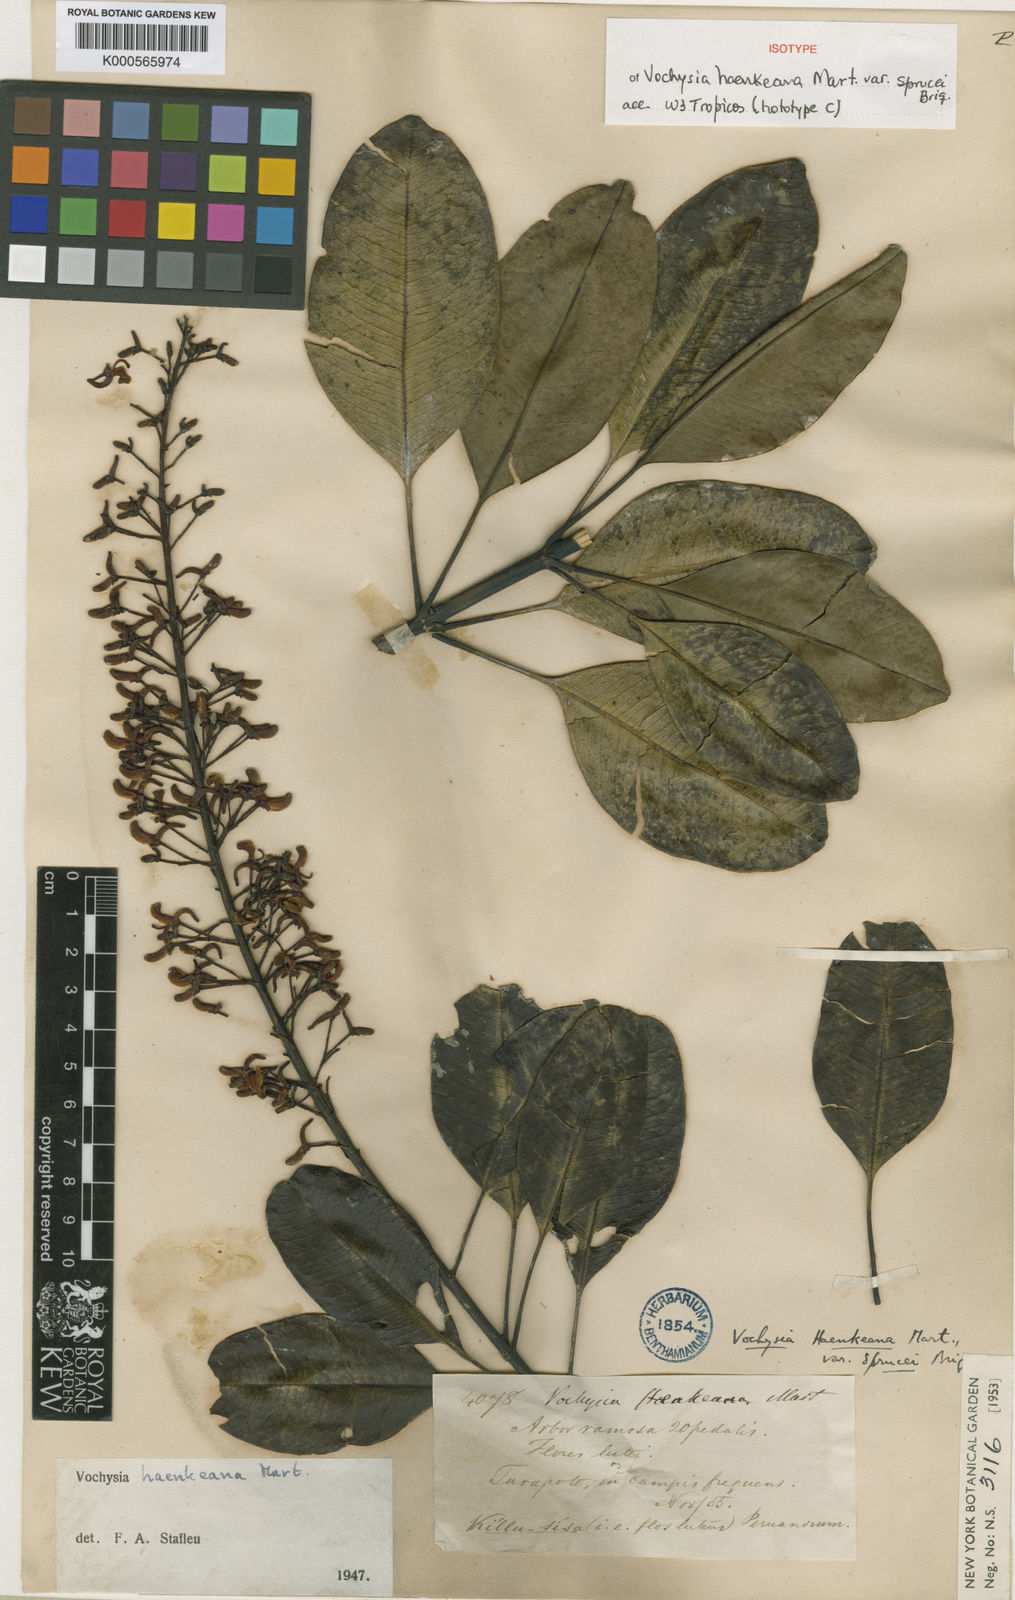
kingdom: Plantae
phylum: Tracheophyta
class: Magnoliopsida
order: Myrtales
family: Vochysiaceae
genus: Vochysia
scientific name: Vochysia haenkeana
